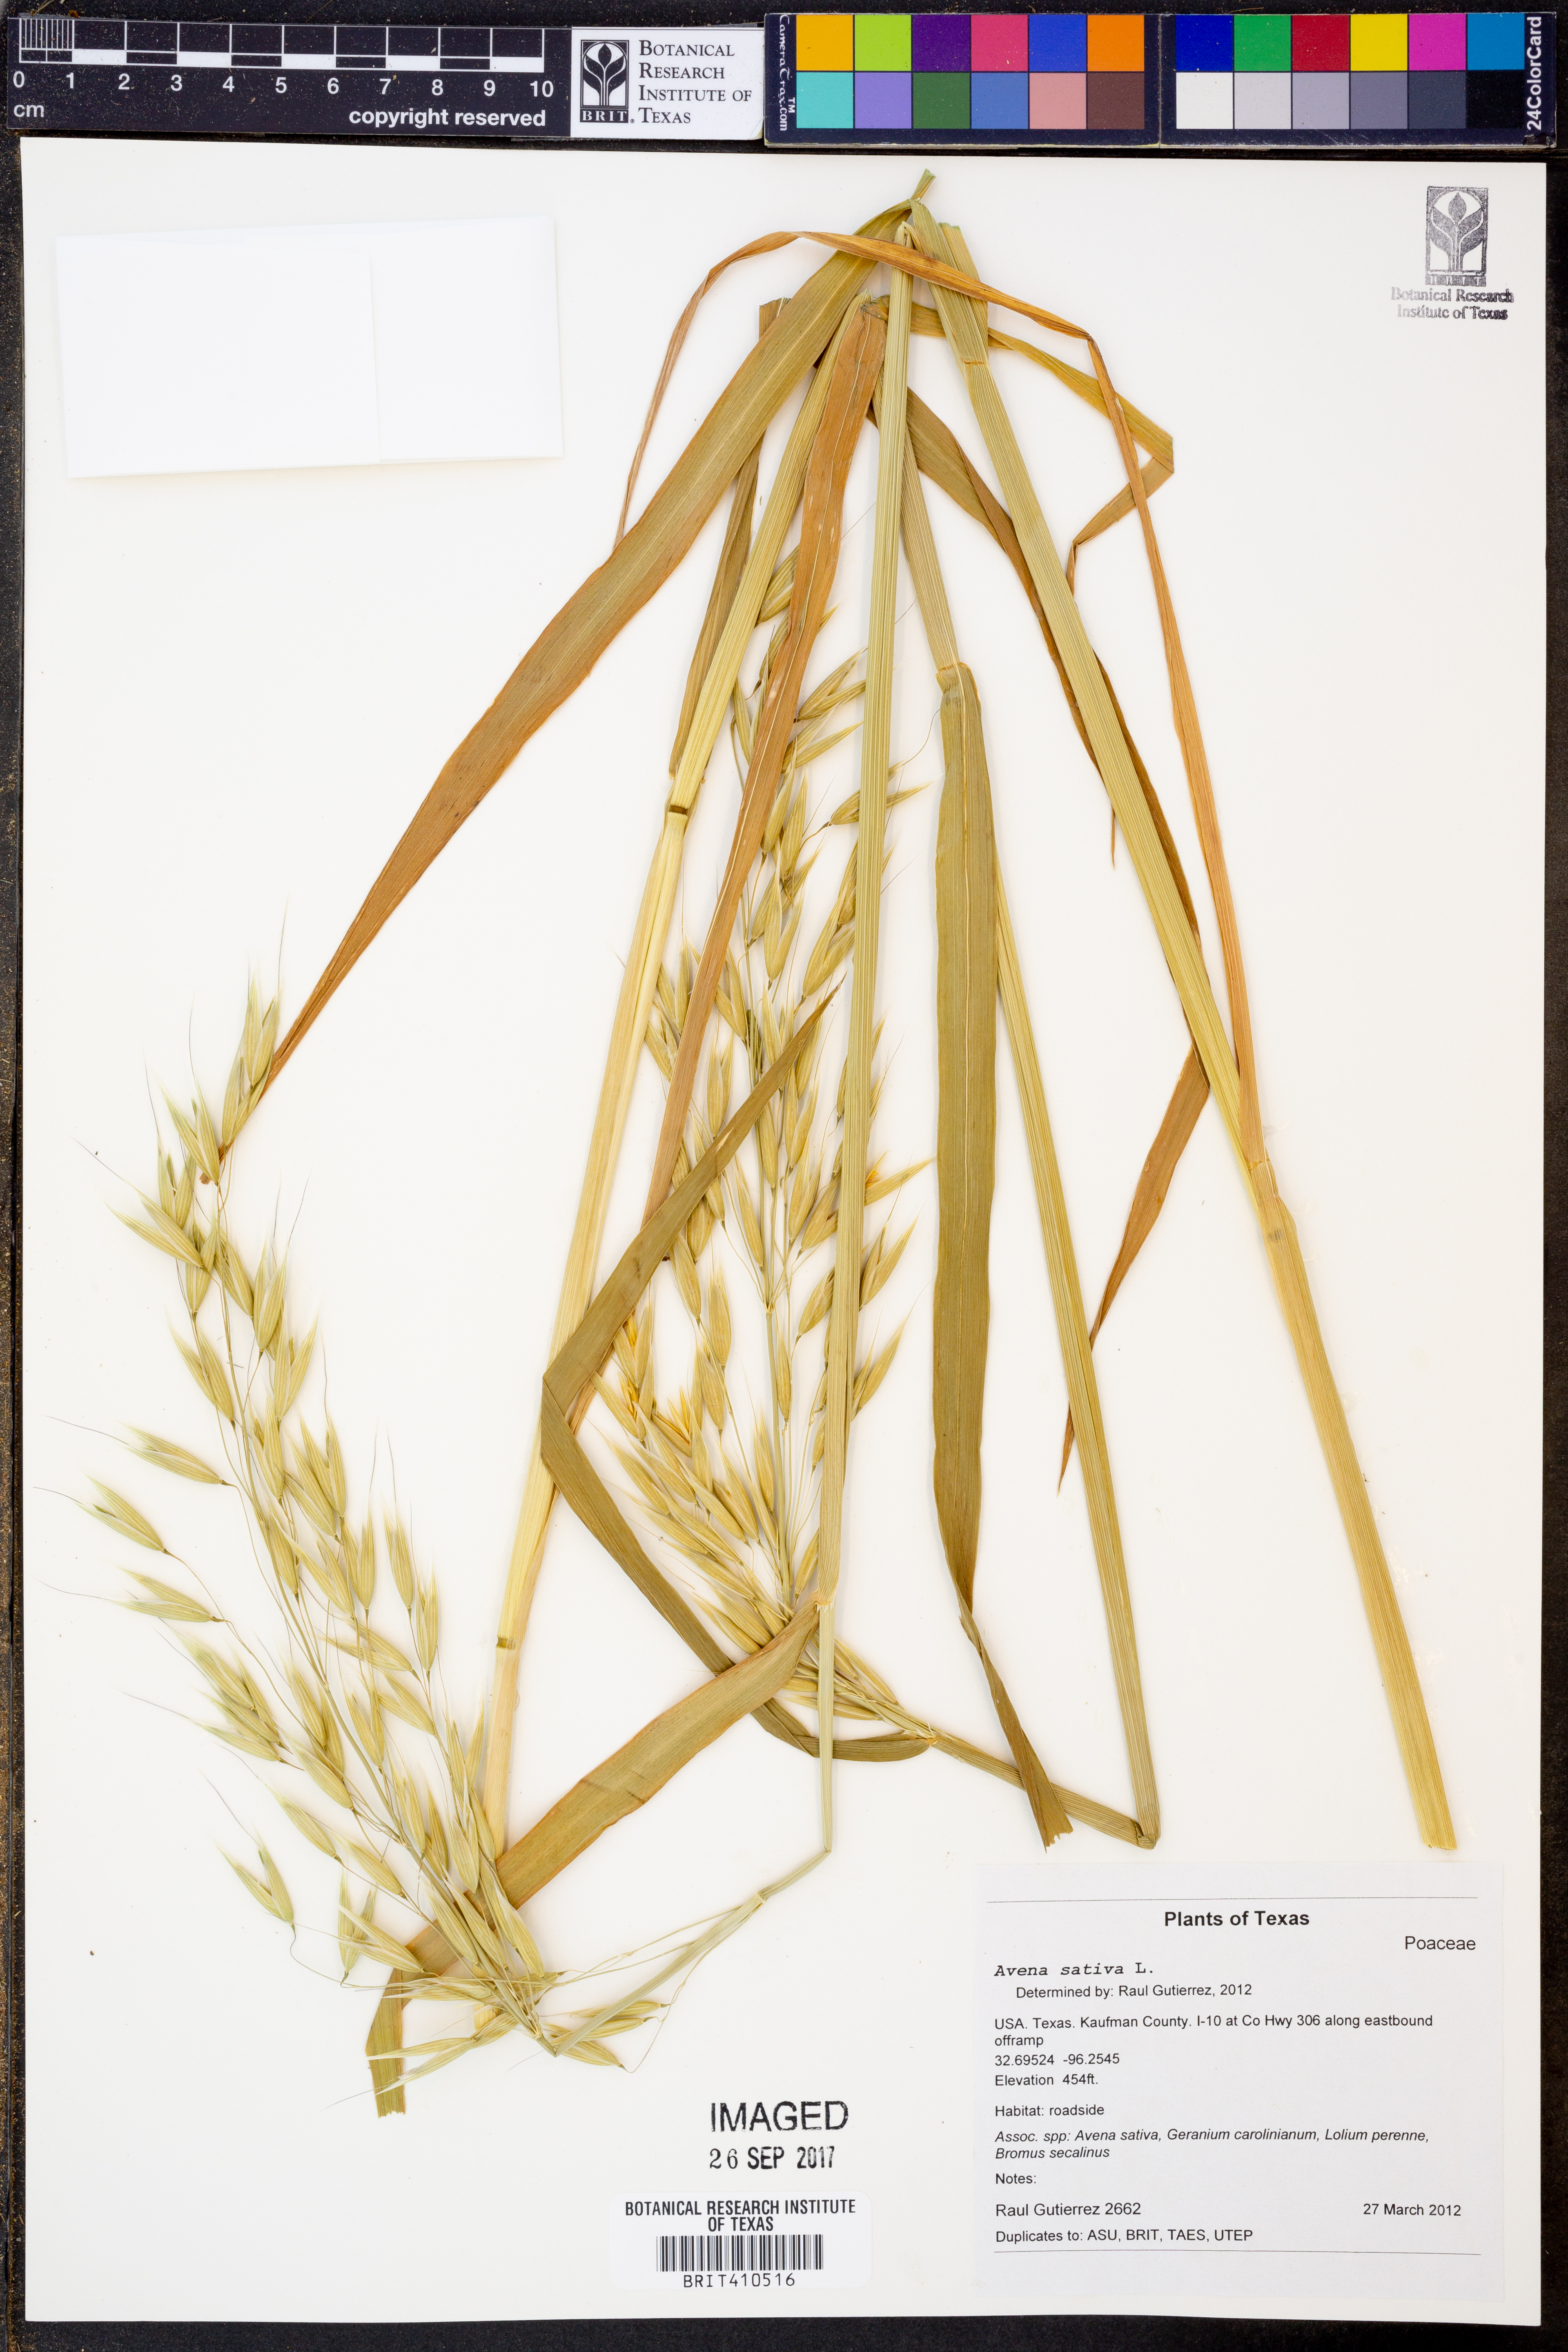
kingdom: Plantae
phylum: Tracheophyta
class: Liliopsida
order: Poales
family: Poaceae
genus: Avena
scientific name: Avena sativa
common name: Oat
